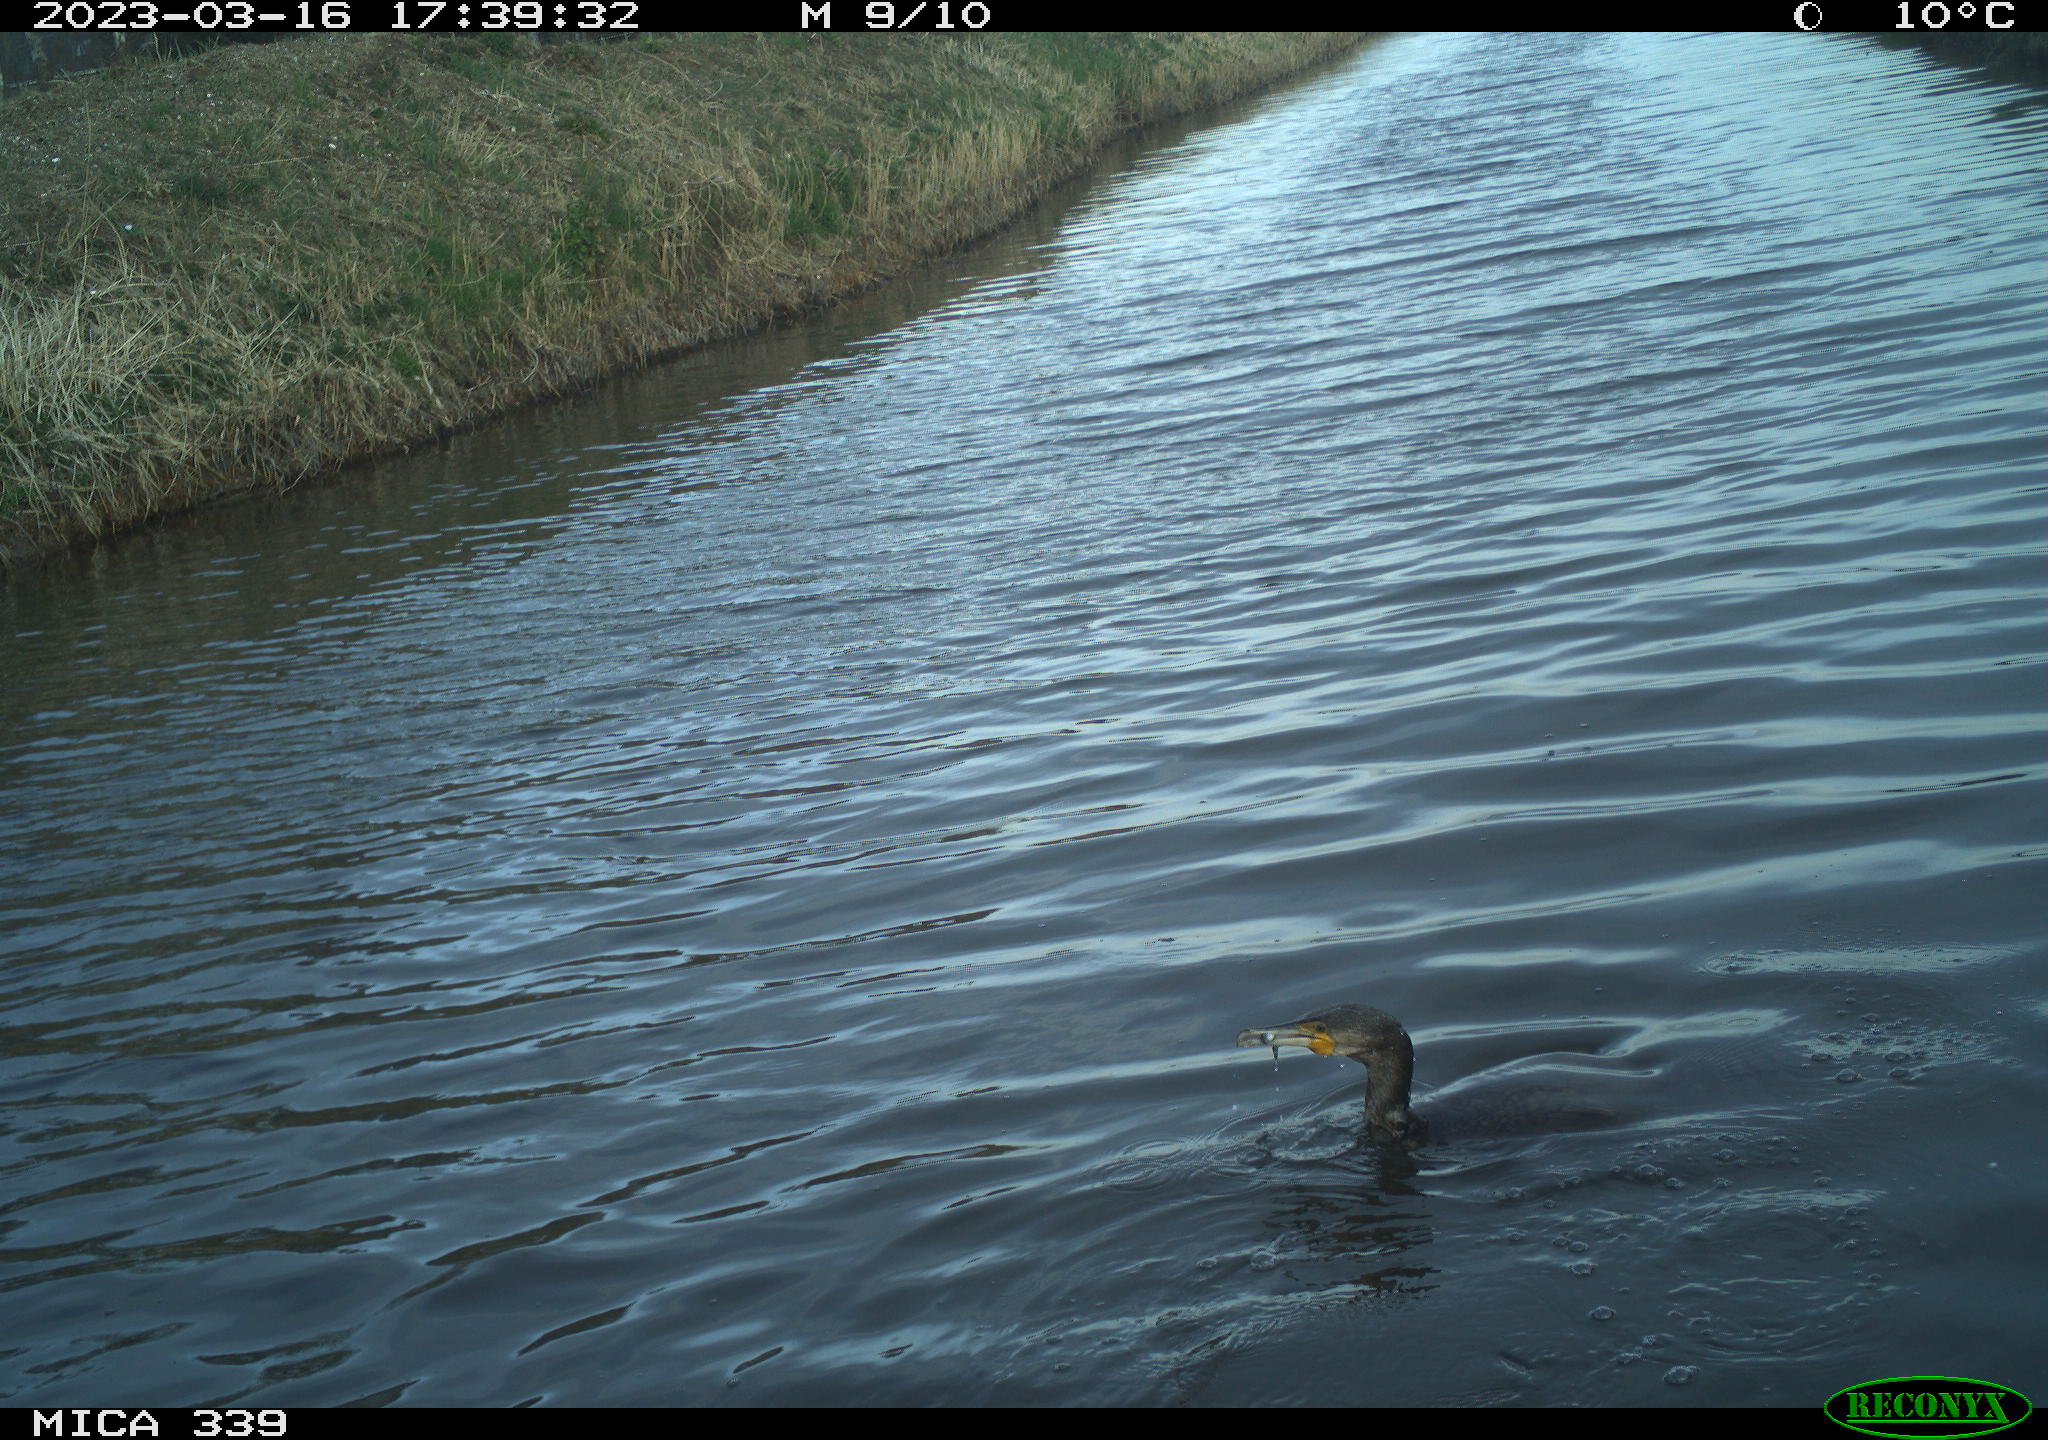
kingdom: Animalia
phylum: Chordata
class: Aves
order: Anseriformes
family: Anatidae
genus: Anas
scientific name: Anas
